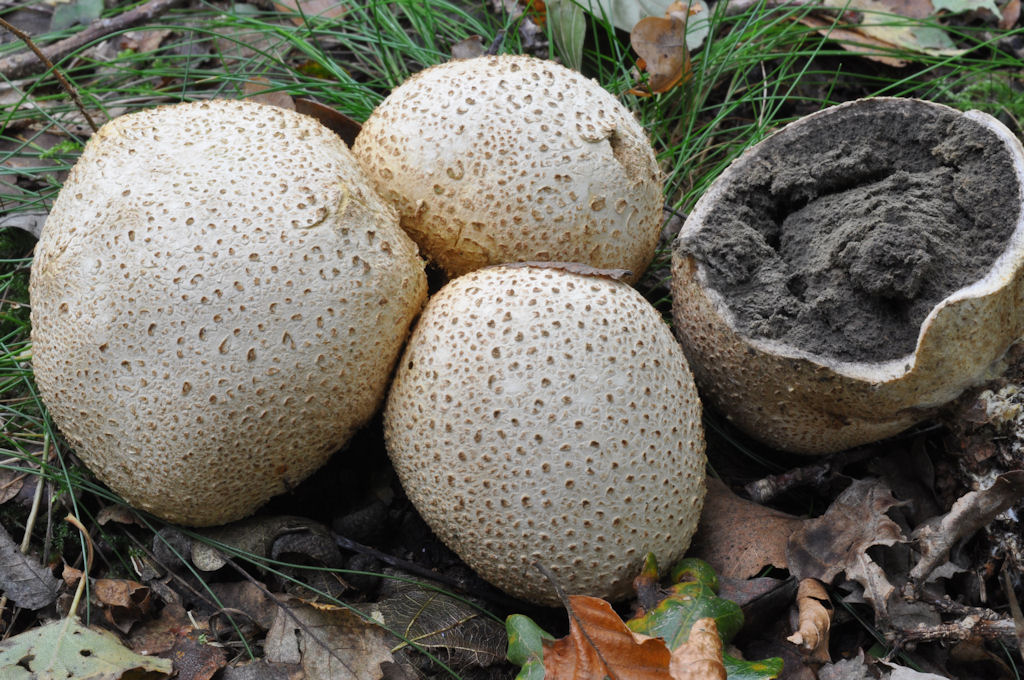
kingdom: Fungi
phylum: Basidiomycota
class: Agaricomycetes
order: Boletales
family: Sclerodermataceae
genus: Scleroderma
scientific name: Scleroderma citrinum
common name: almindelig bruskbold
